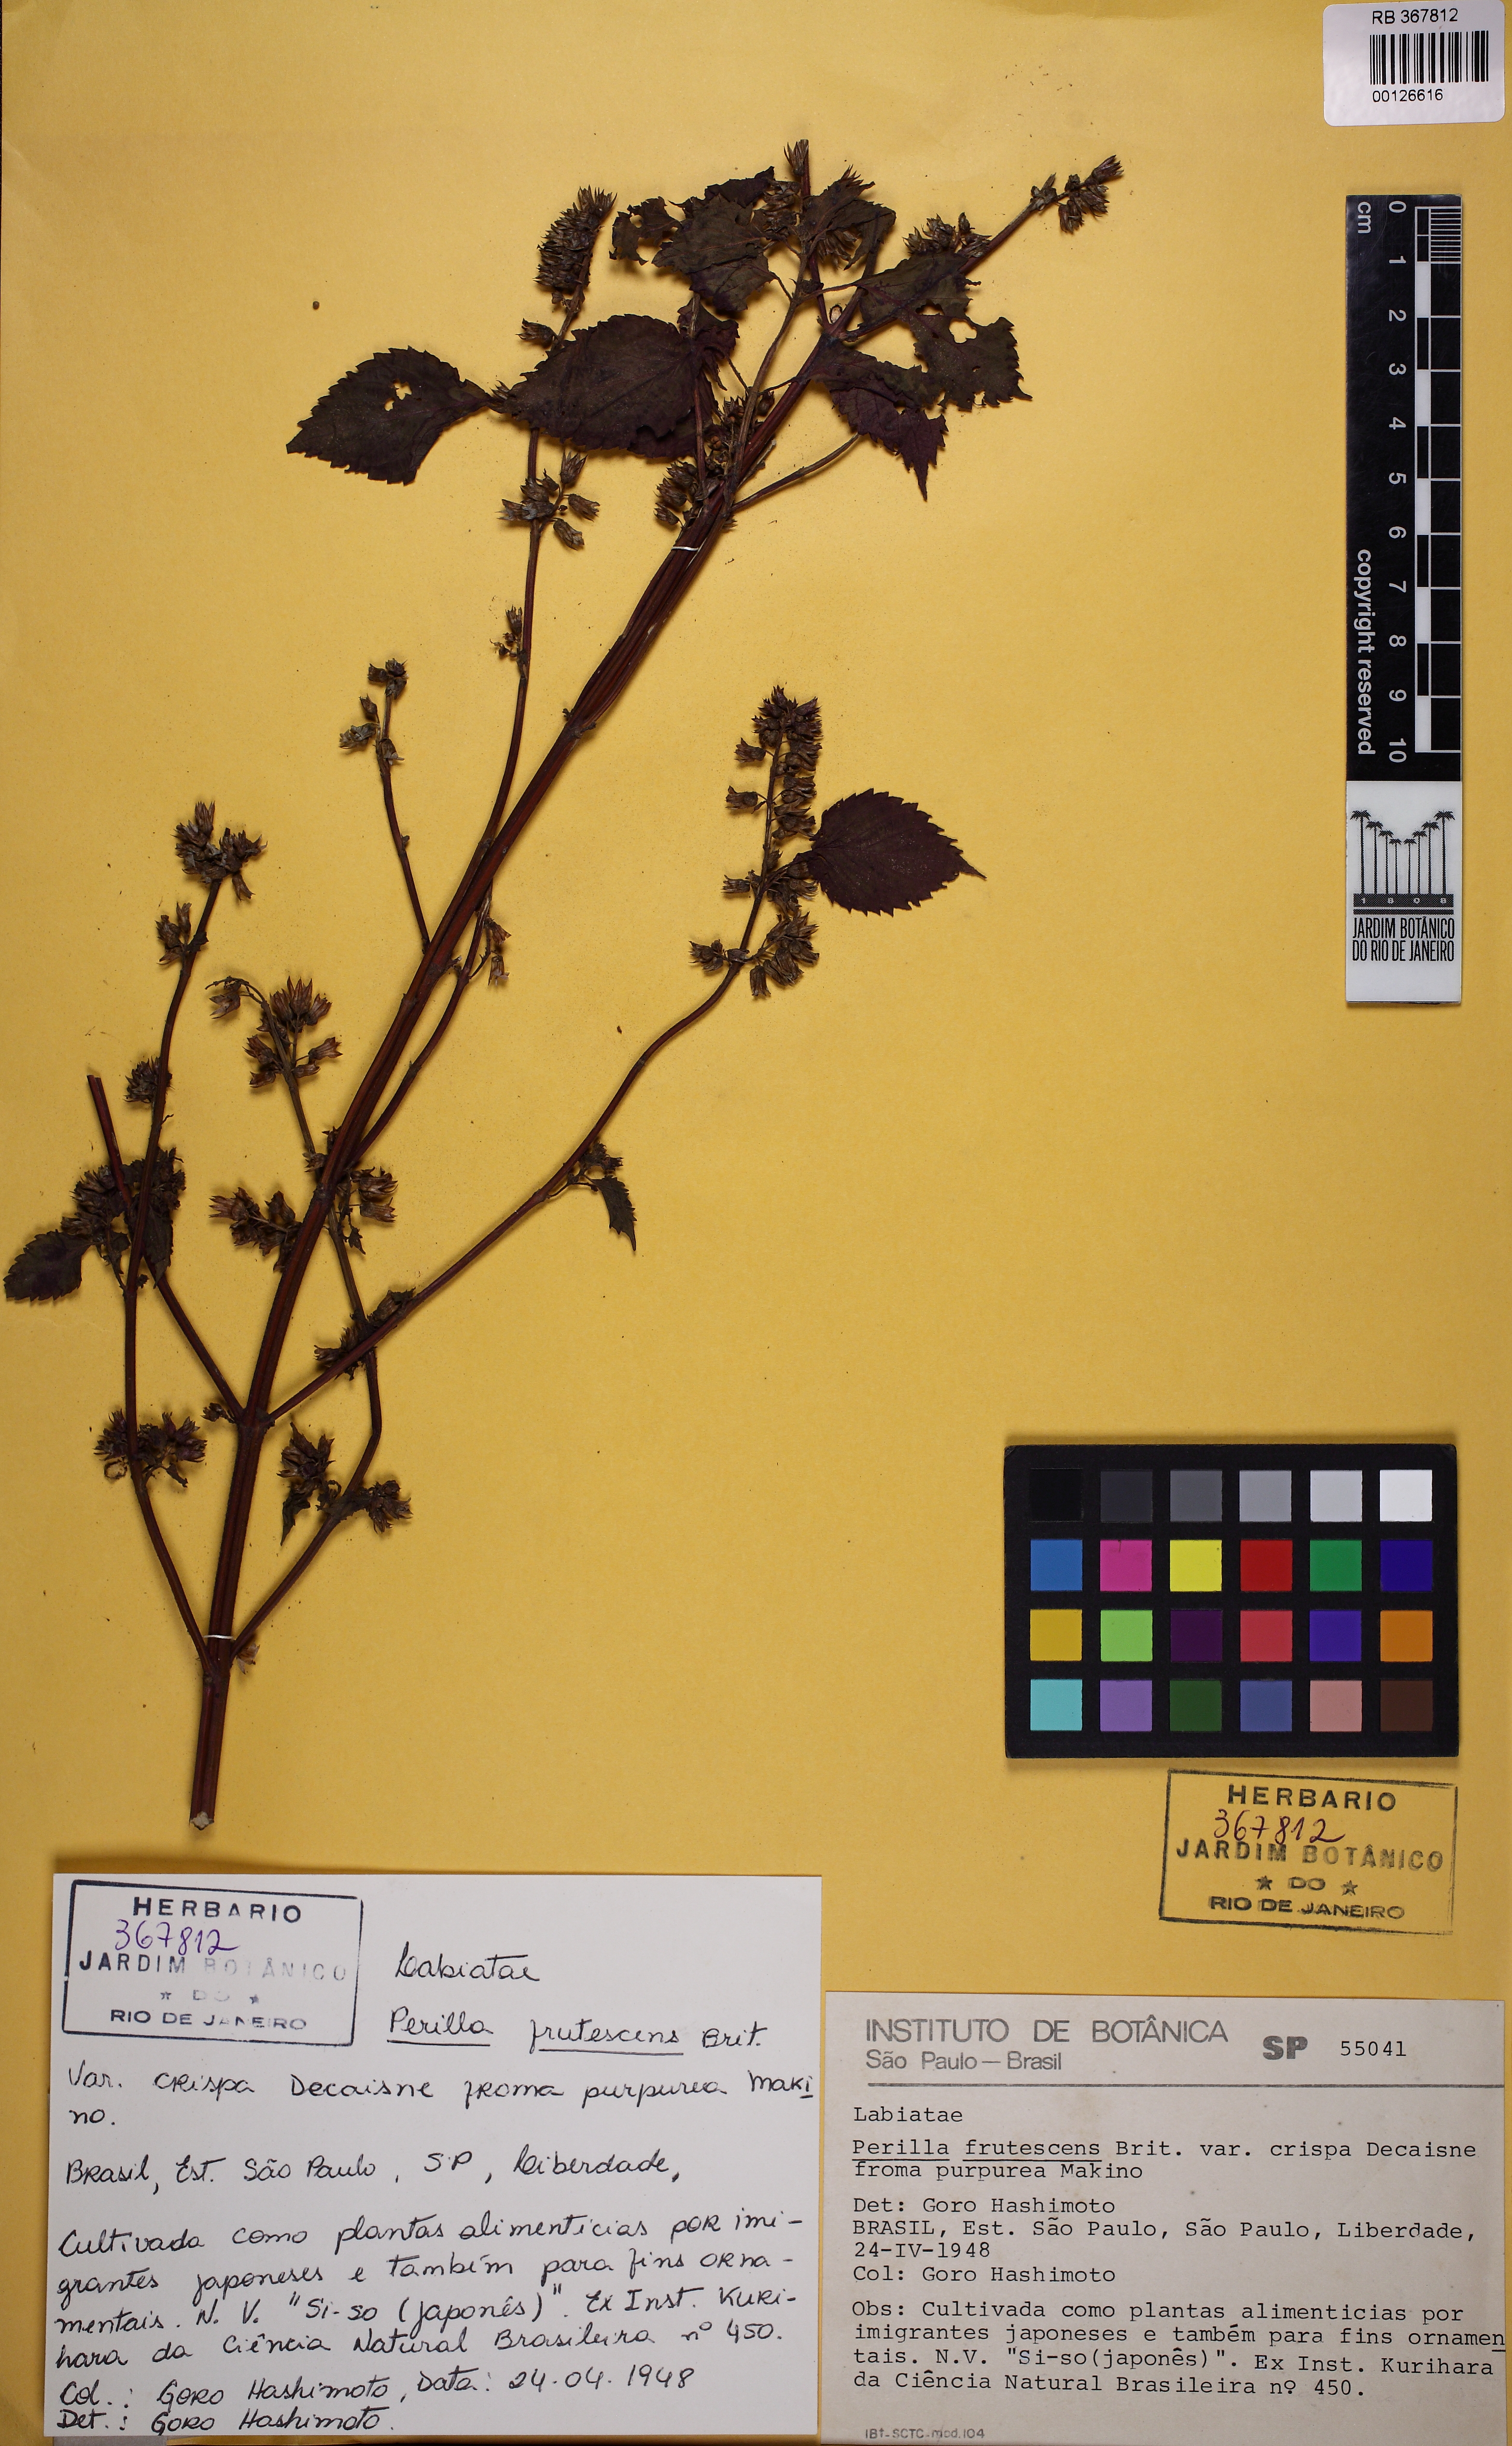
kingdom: Plantae
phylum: Tracheophyta
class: Magnoliopsida
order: Lamiales
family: Lamiaceae
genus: Perilla
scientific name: Perilla frutescens
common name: Perilla
